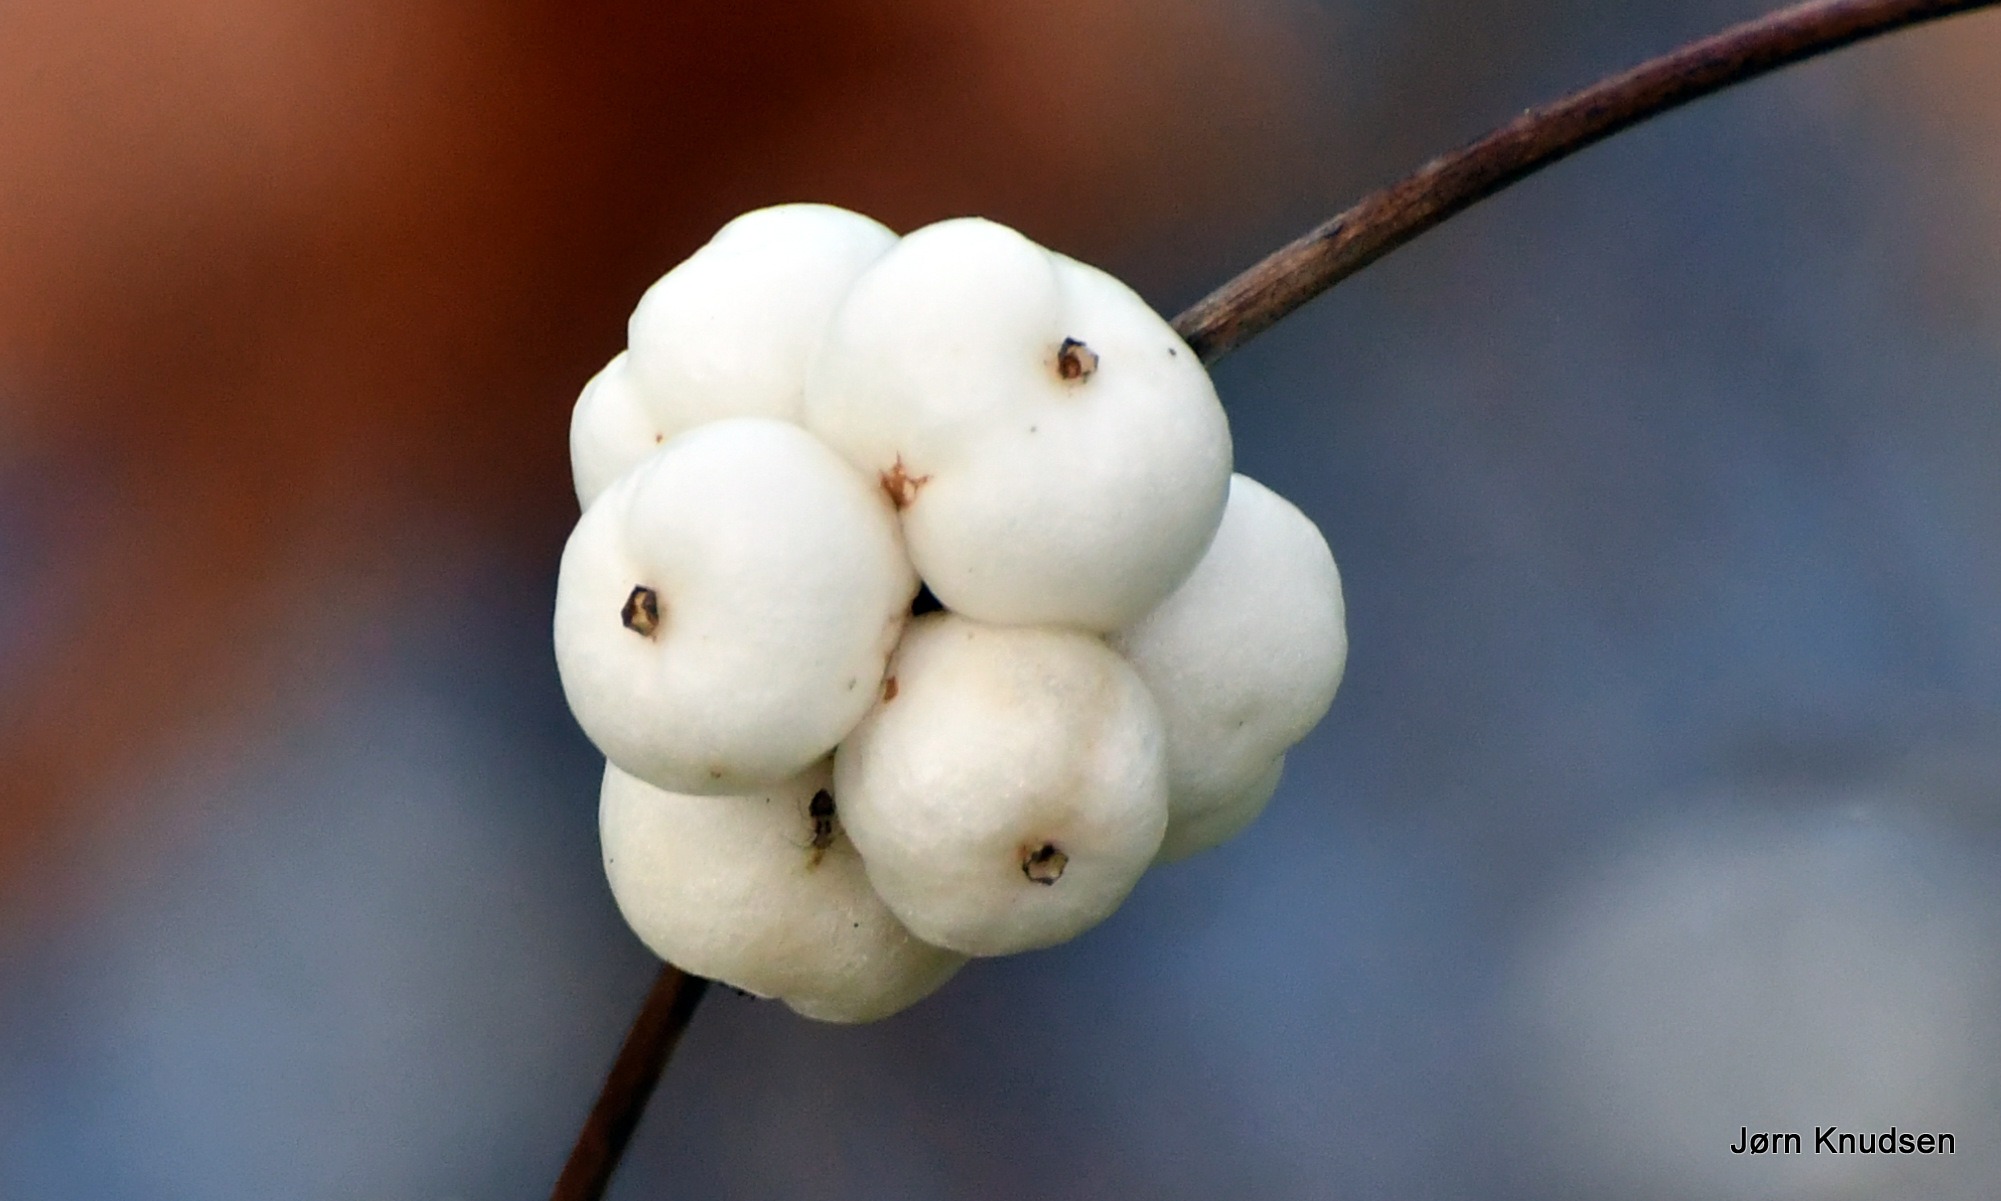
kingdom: Plantae
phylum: Tracheophyta
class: Magnoliopsida
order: Dipsacales
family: Caprifoliaceae
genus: Symphoricarpos
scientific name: Symphoricarpos albus
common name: Almindelig snebær
